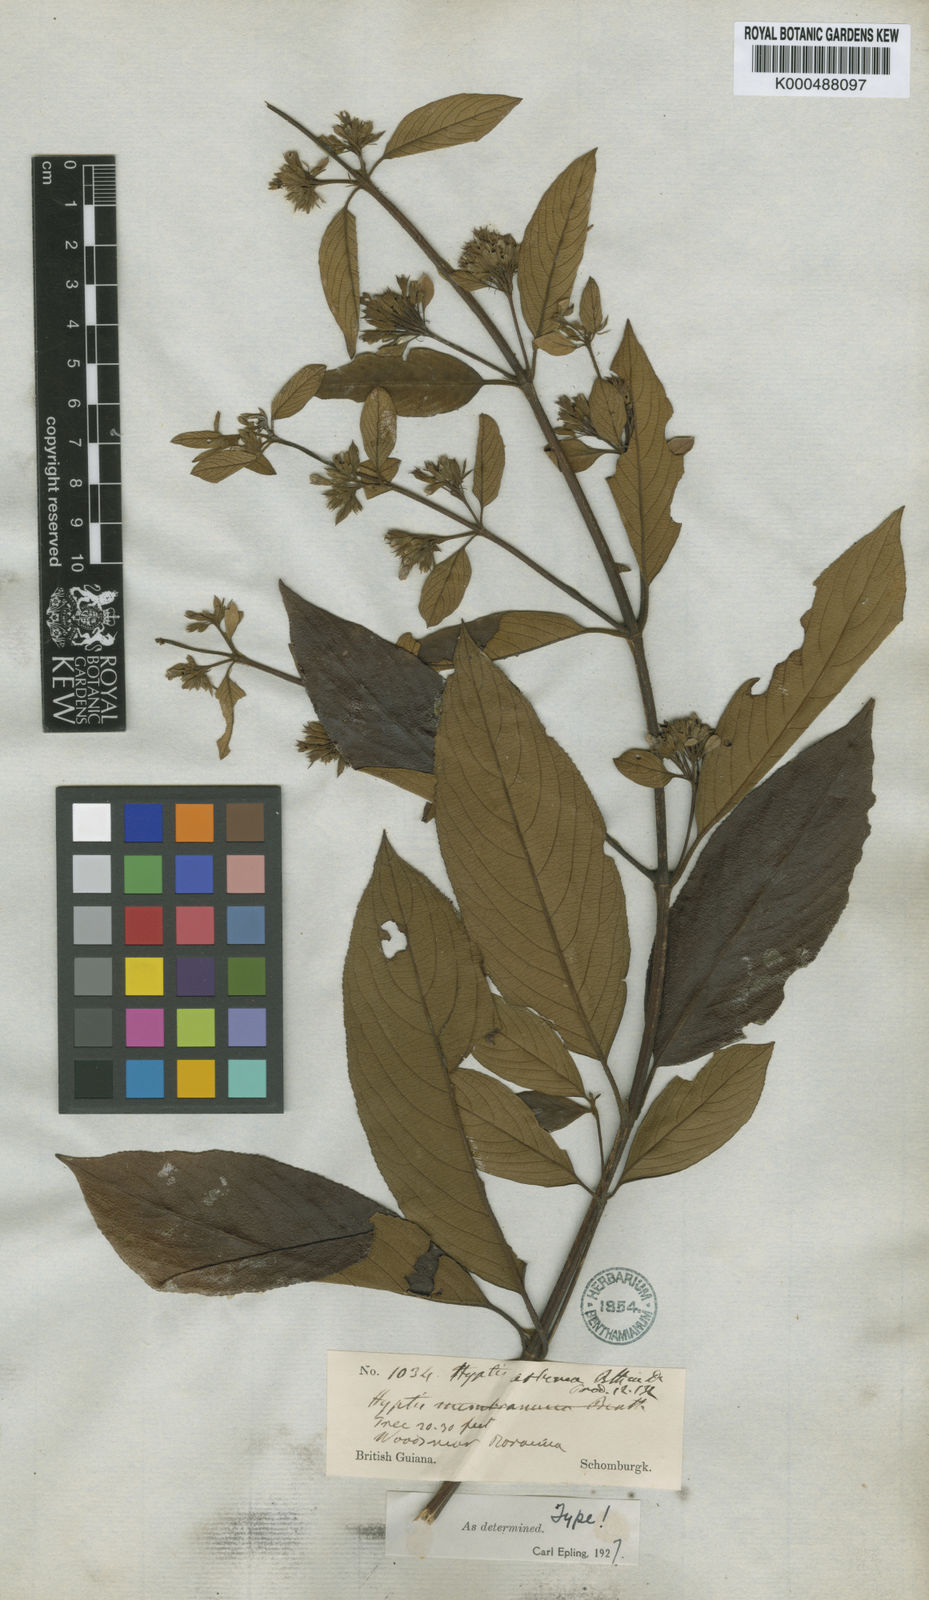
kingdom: Plantae
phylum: Tracheophyta
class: Magnoliopsida
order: Lamiales
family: Lamiaceae
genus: Hyptidendron
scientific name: Hyptidendron arboreum
